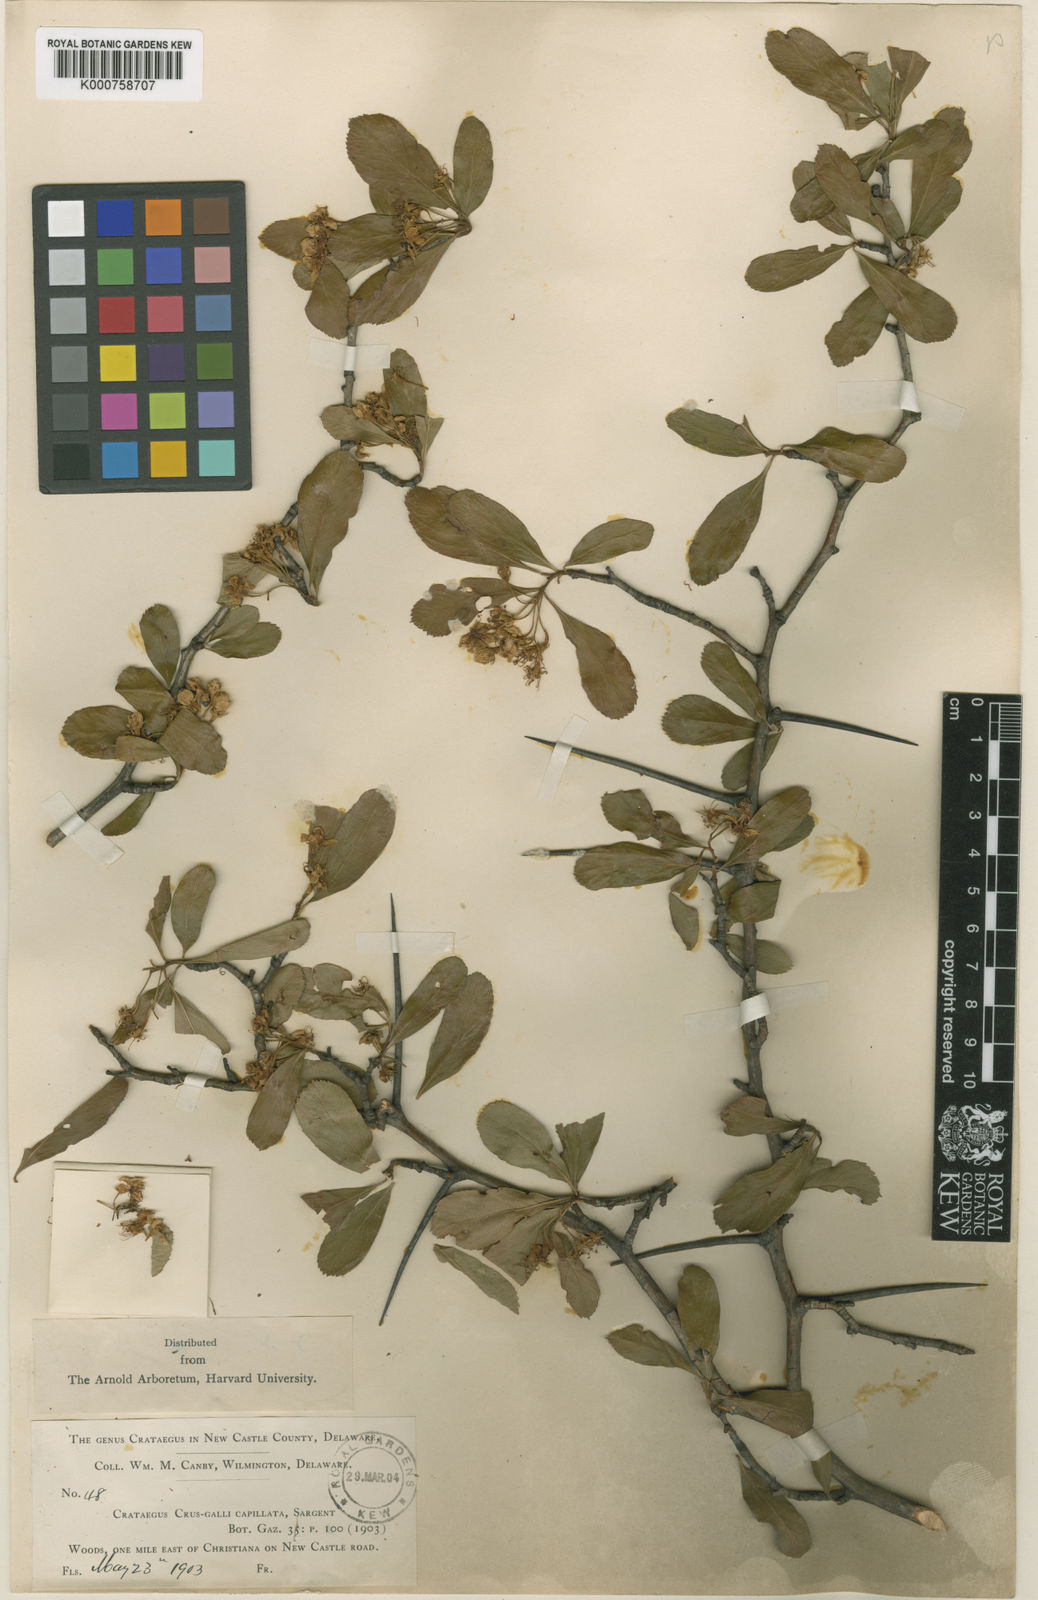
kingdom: Plantae
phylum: Tracheophyta
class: Magnoliopsida
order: Rosales
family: Rosaceae
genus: Crataegus
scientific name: Crataegus crus-galli
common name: Cockspurthorn
